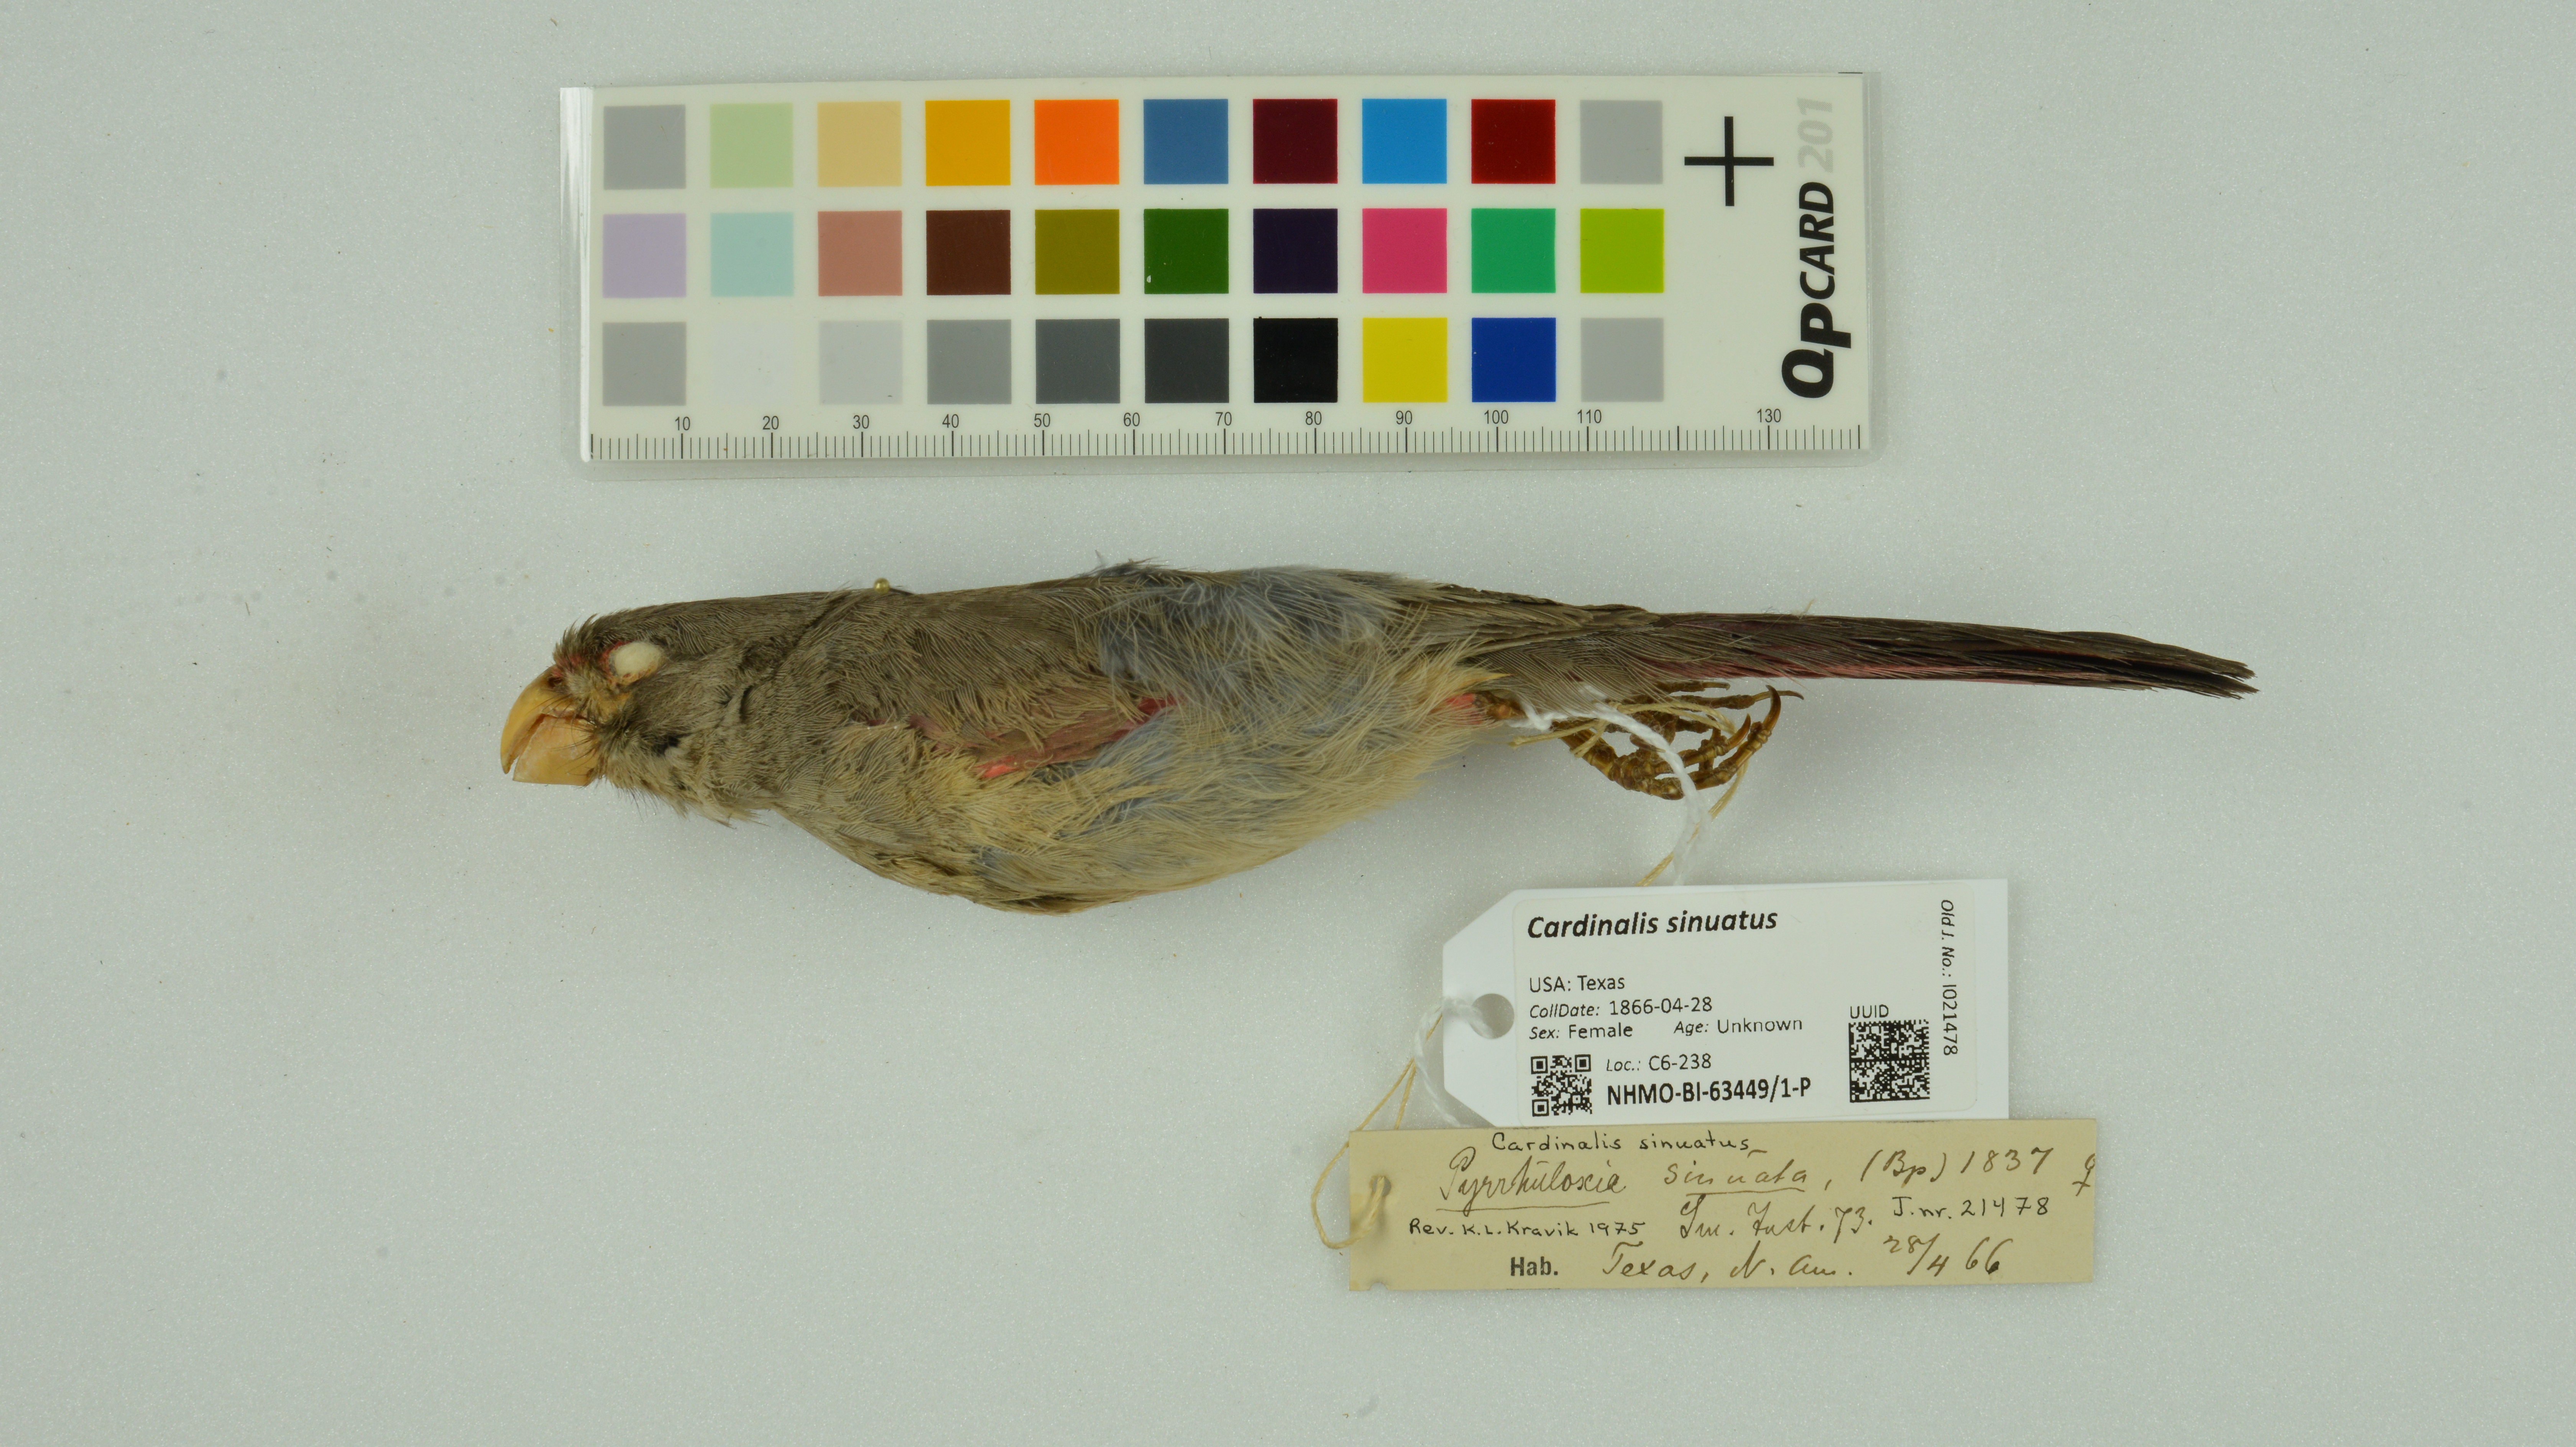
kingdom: Animalia
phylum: Chordata
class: Aves
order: Passeriformes
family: Cardinalidae
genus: Cardinalis
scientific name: Cardinalis sinuatus
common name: Pyrrhuloxia
